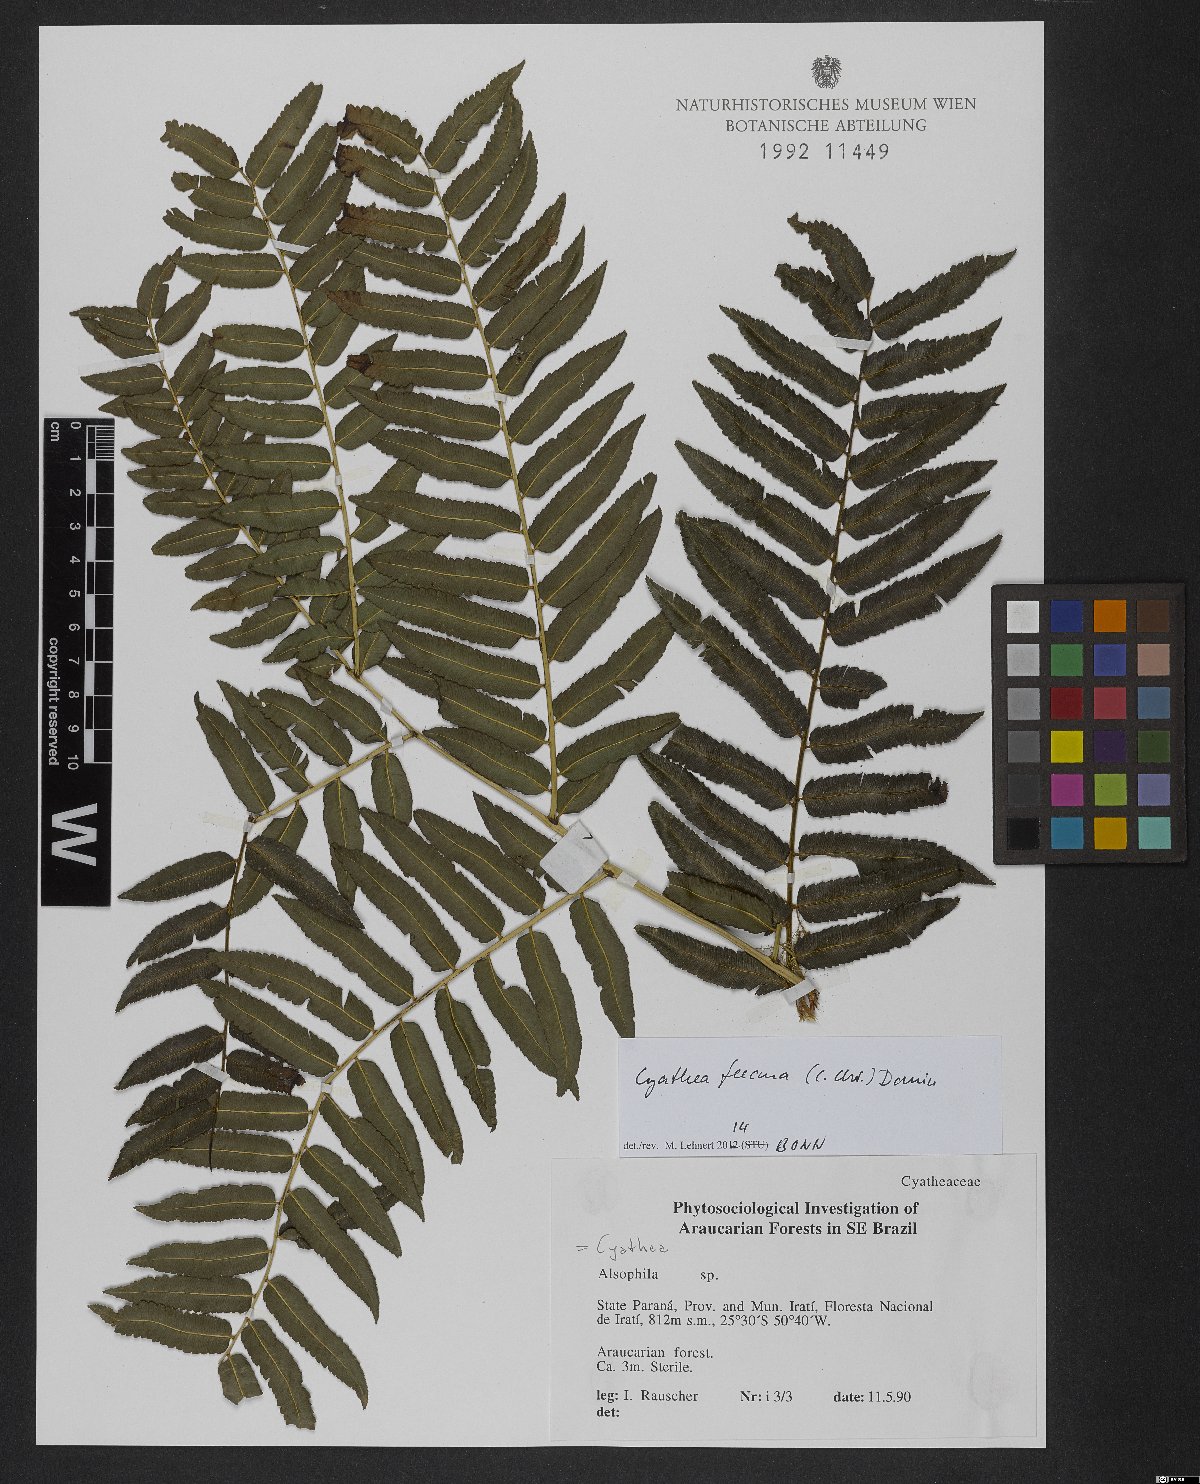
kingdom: Plantae
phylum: Tracheophyta
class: Polypodiopsida
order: Cyatheales
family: Cyatheaceae
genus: Cyathea
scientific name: Cyathea feeana
